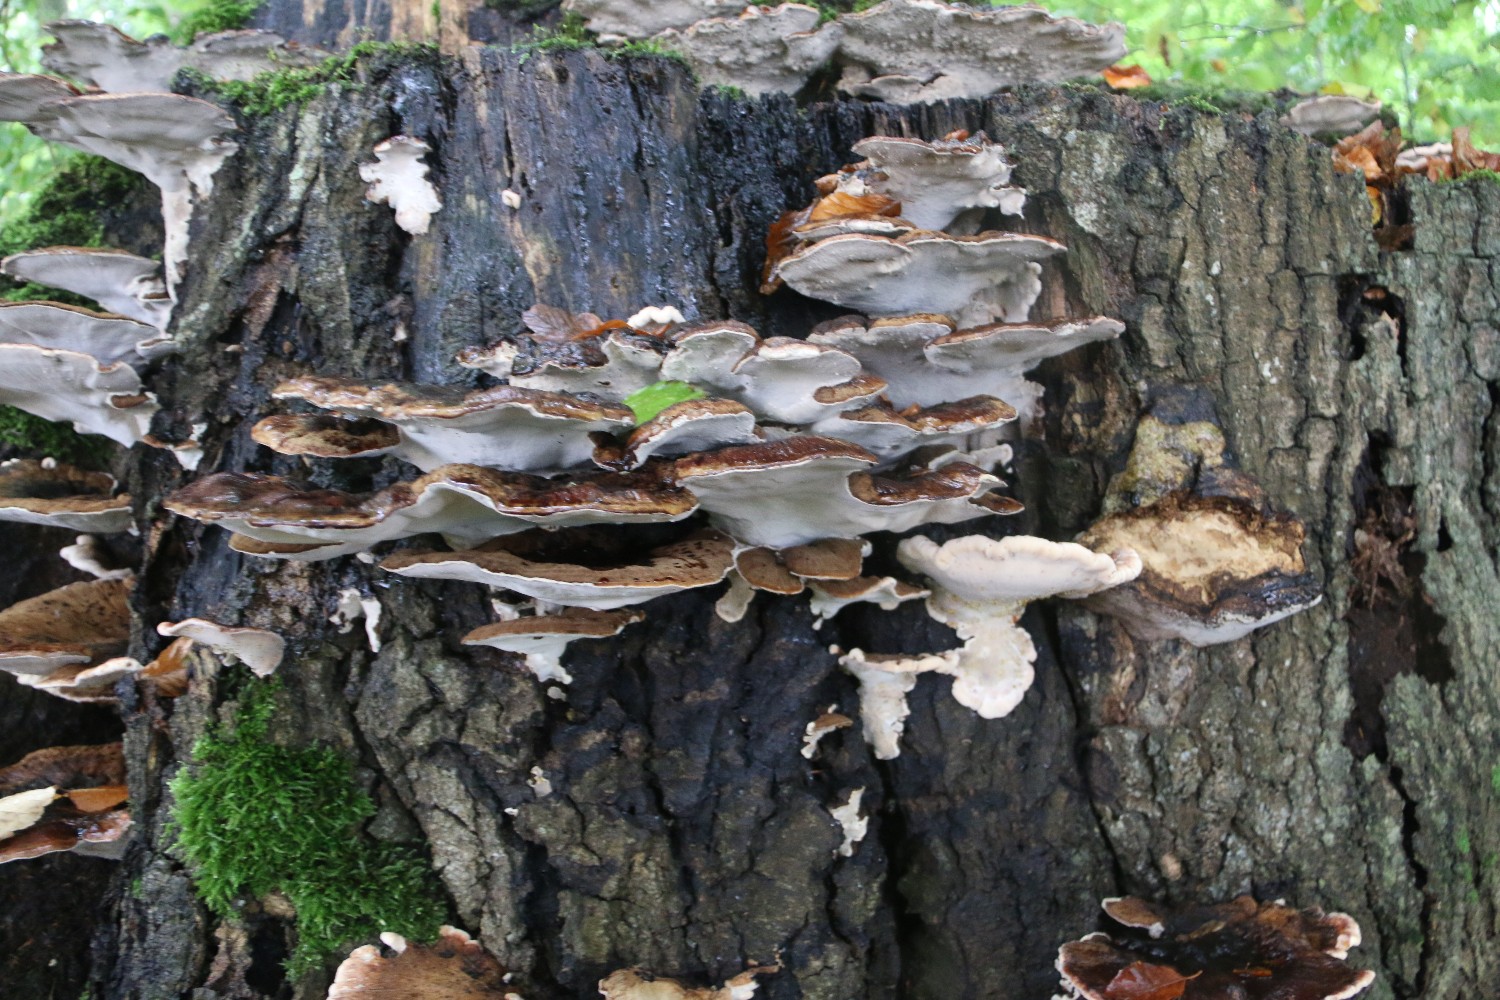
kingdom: Fungi
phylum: Basidiomycota
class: Agaricomycetes
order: Polyporales
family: Ischnodermataceae
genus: Ischnoderma
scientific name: Ischnoderma resinosum
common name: løv-tjæreporesvamp
